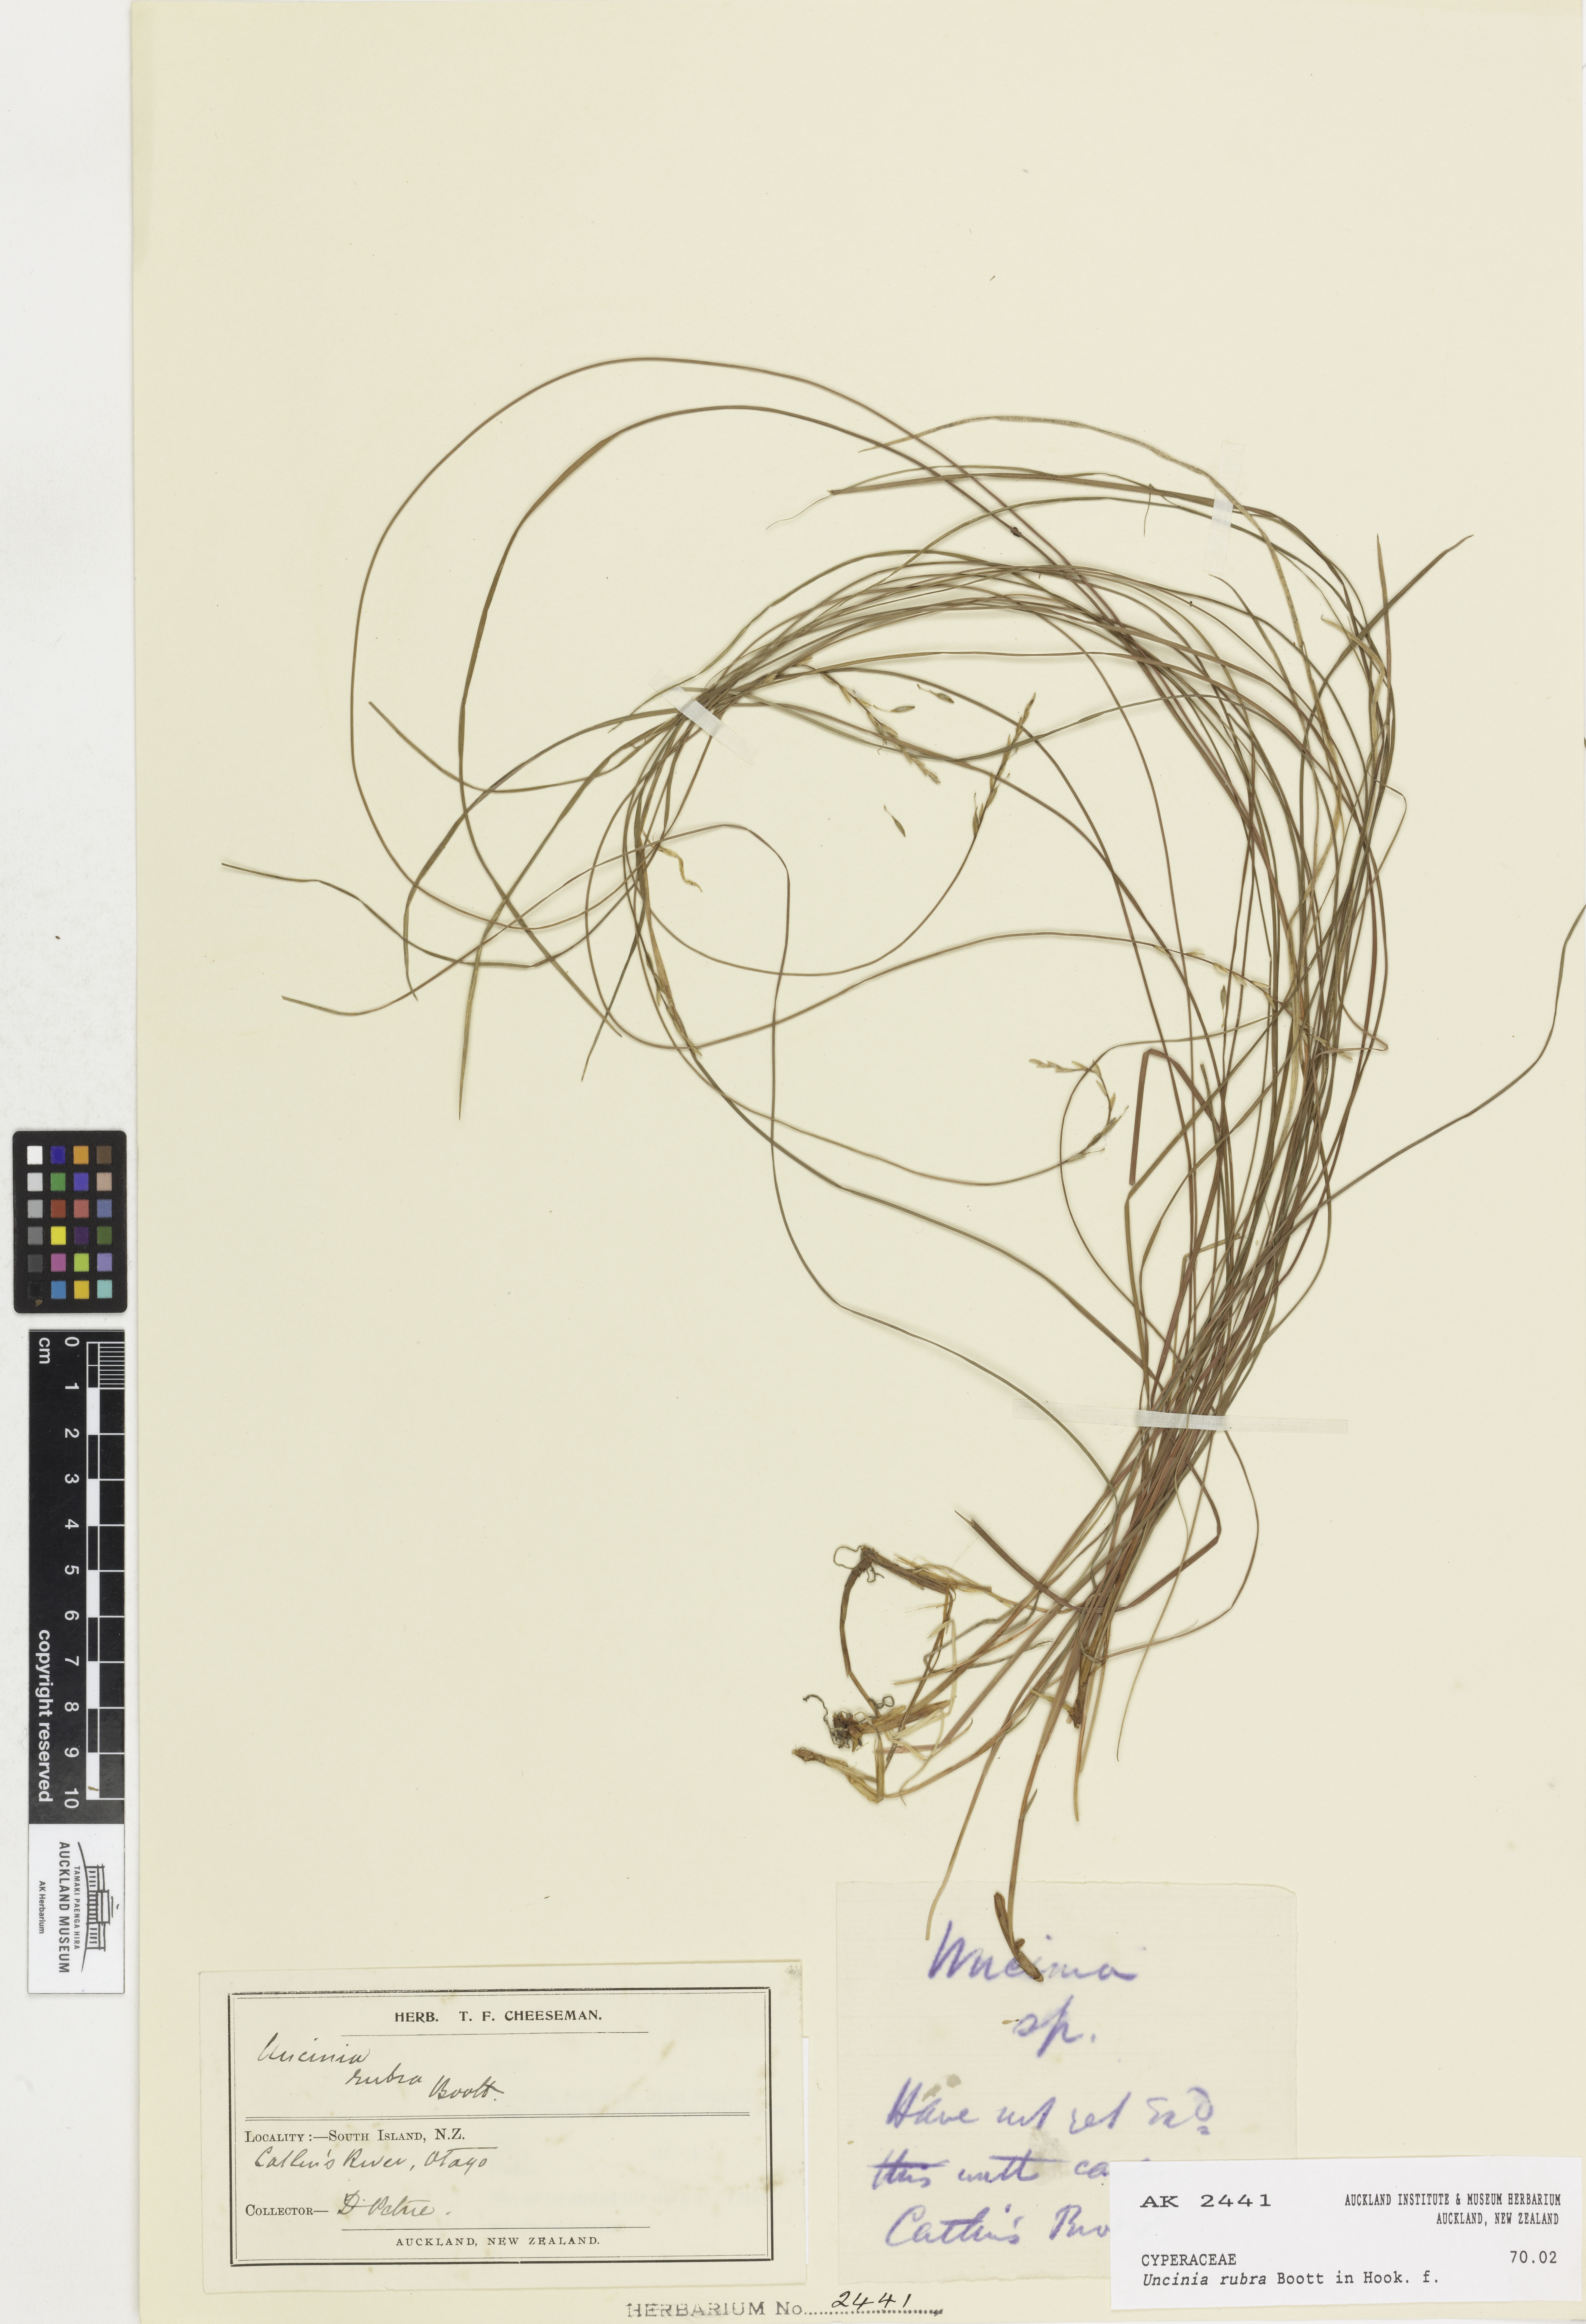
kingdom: Plantae
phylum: Tracheophyta
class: Liliopsida
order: Poales
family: Cyperaceae
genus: Carex
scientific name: Carex punicea
